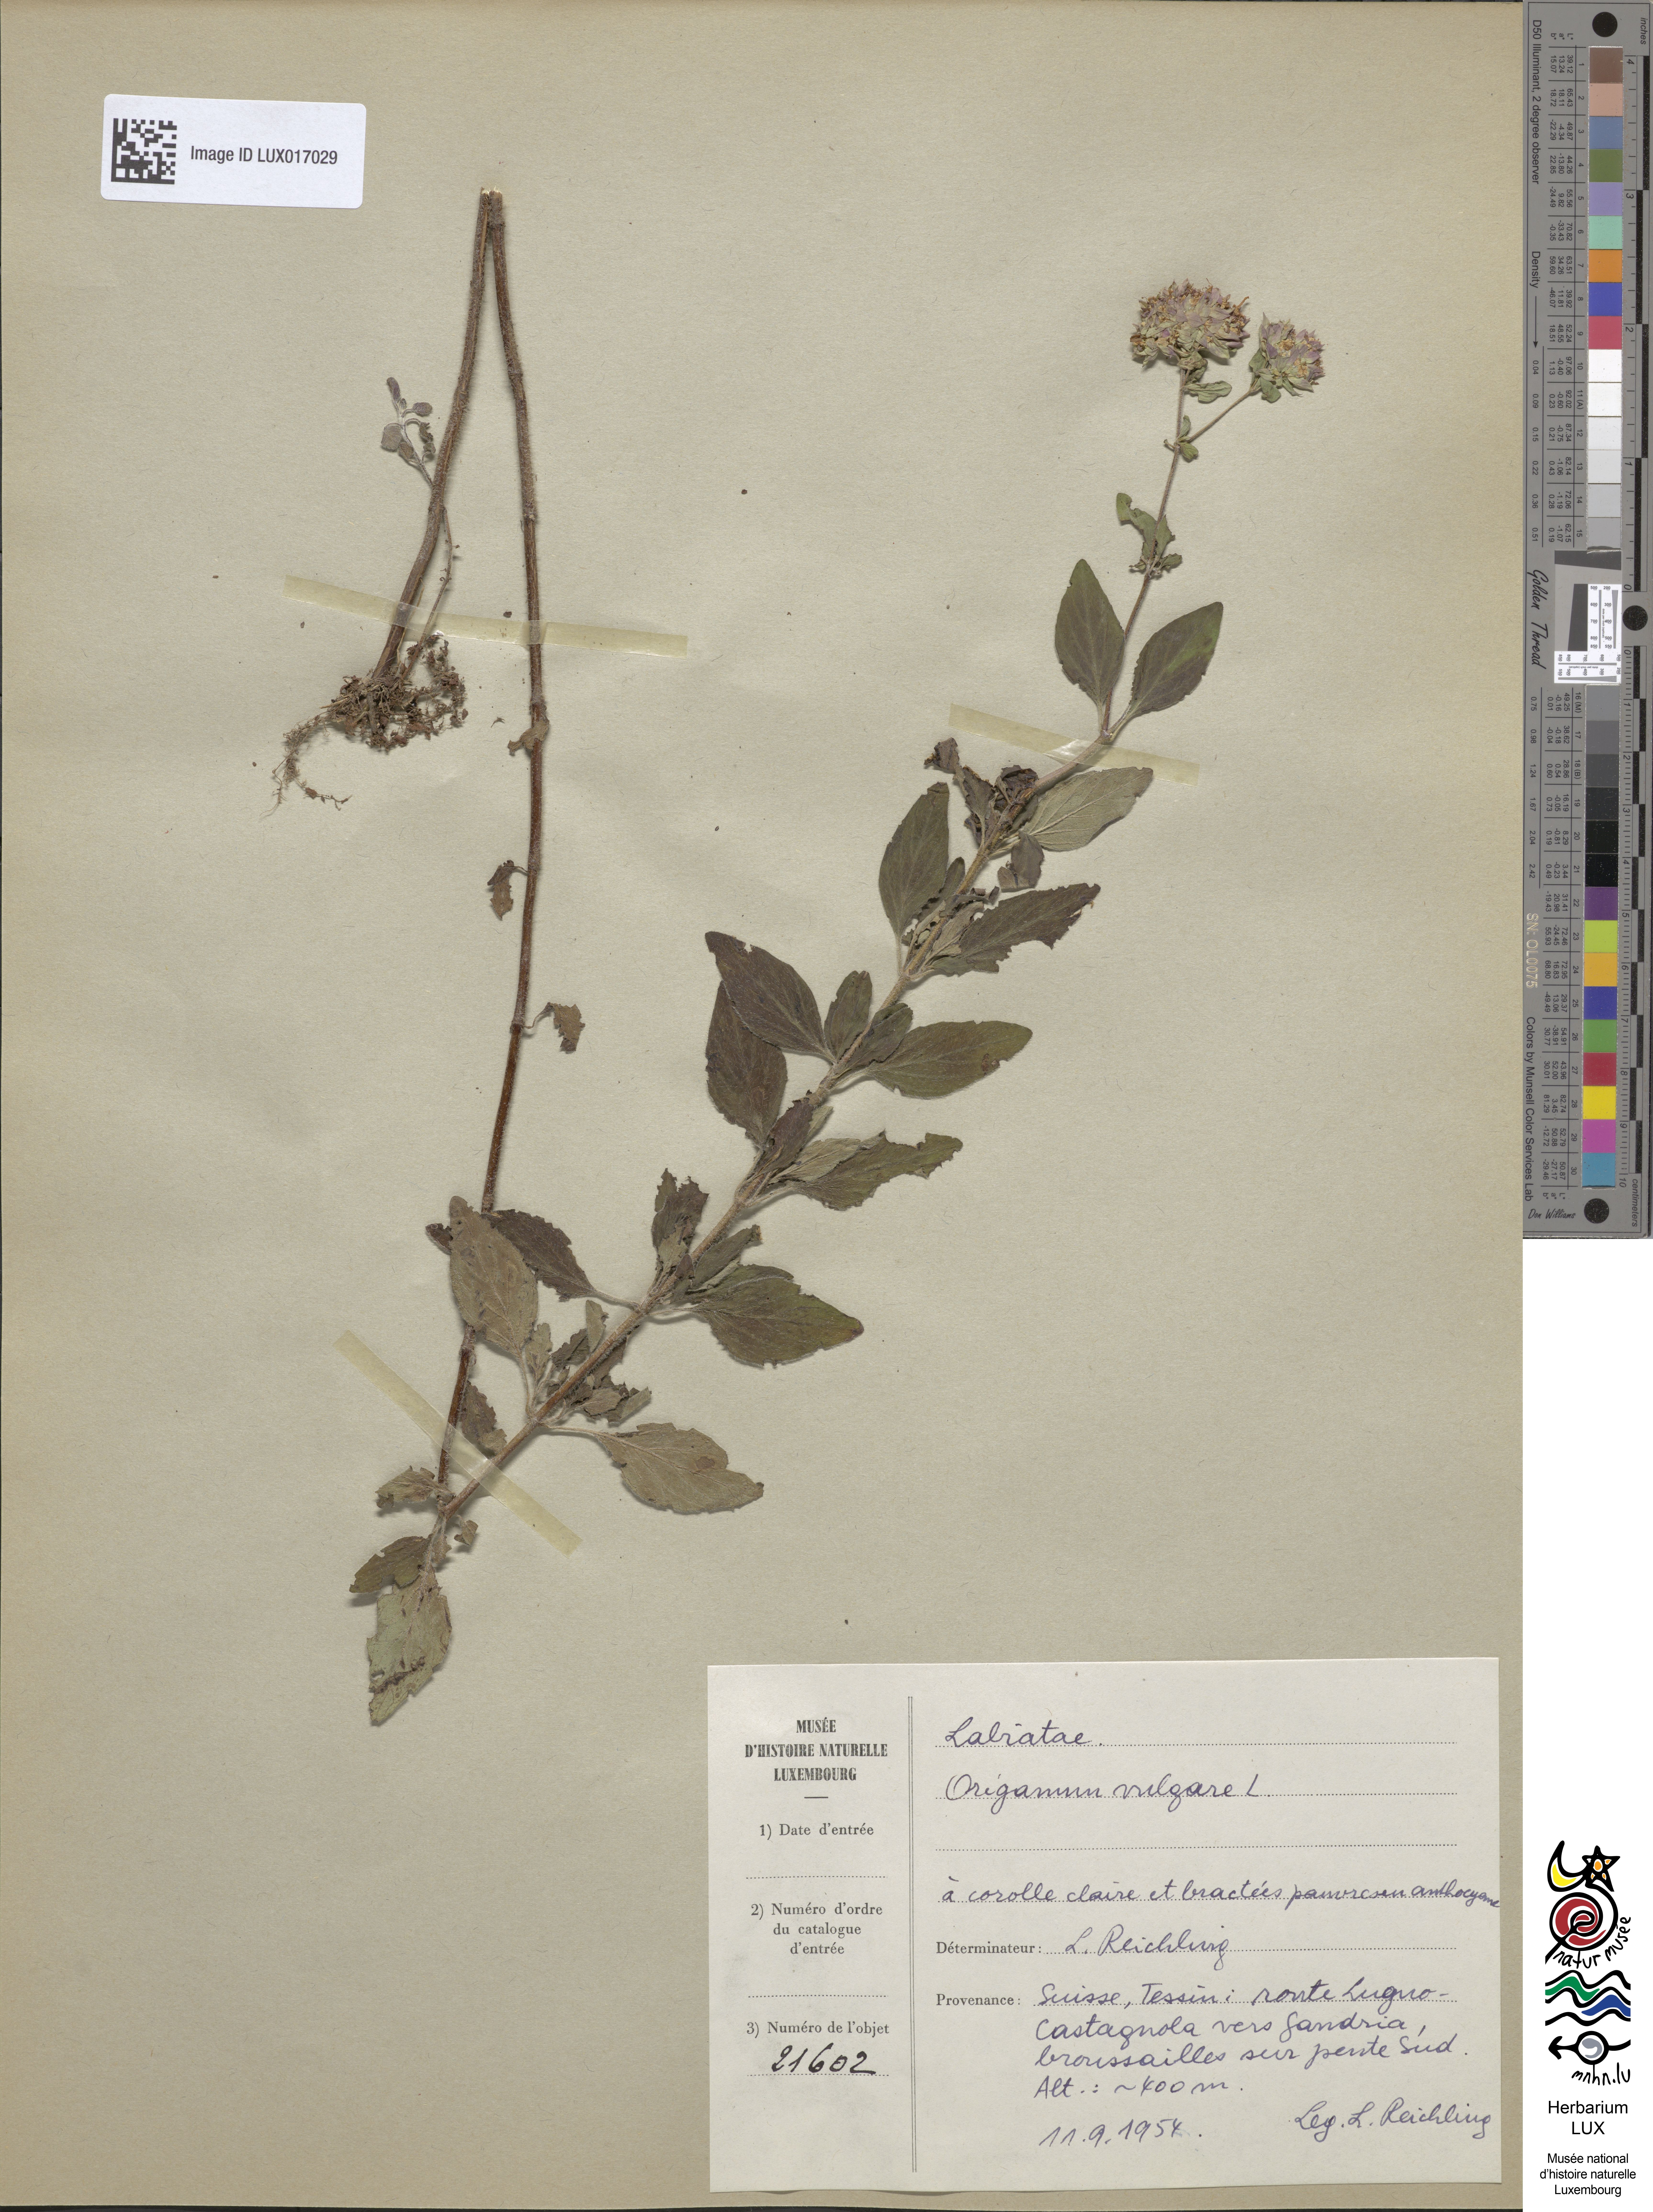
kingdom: Plantae
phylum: Tracheophyta
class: Magnoliopsida
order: Lamiales
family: Lamiaceae
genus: Origanum
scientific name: Origanum vulgare
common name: Wild marjoram
